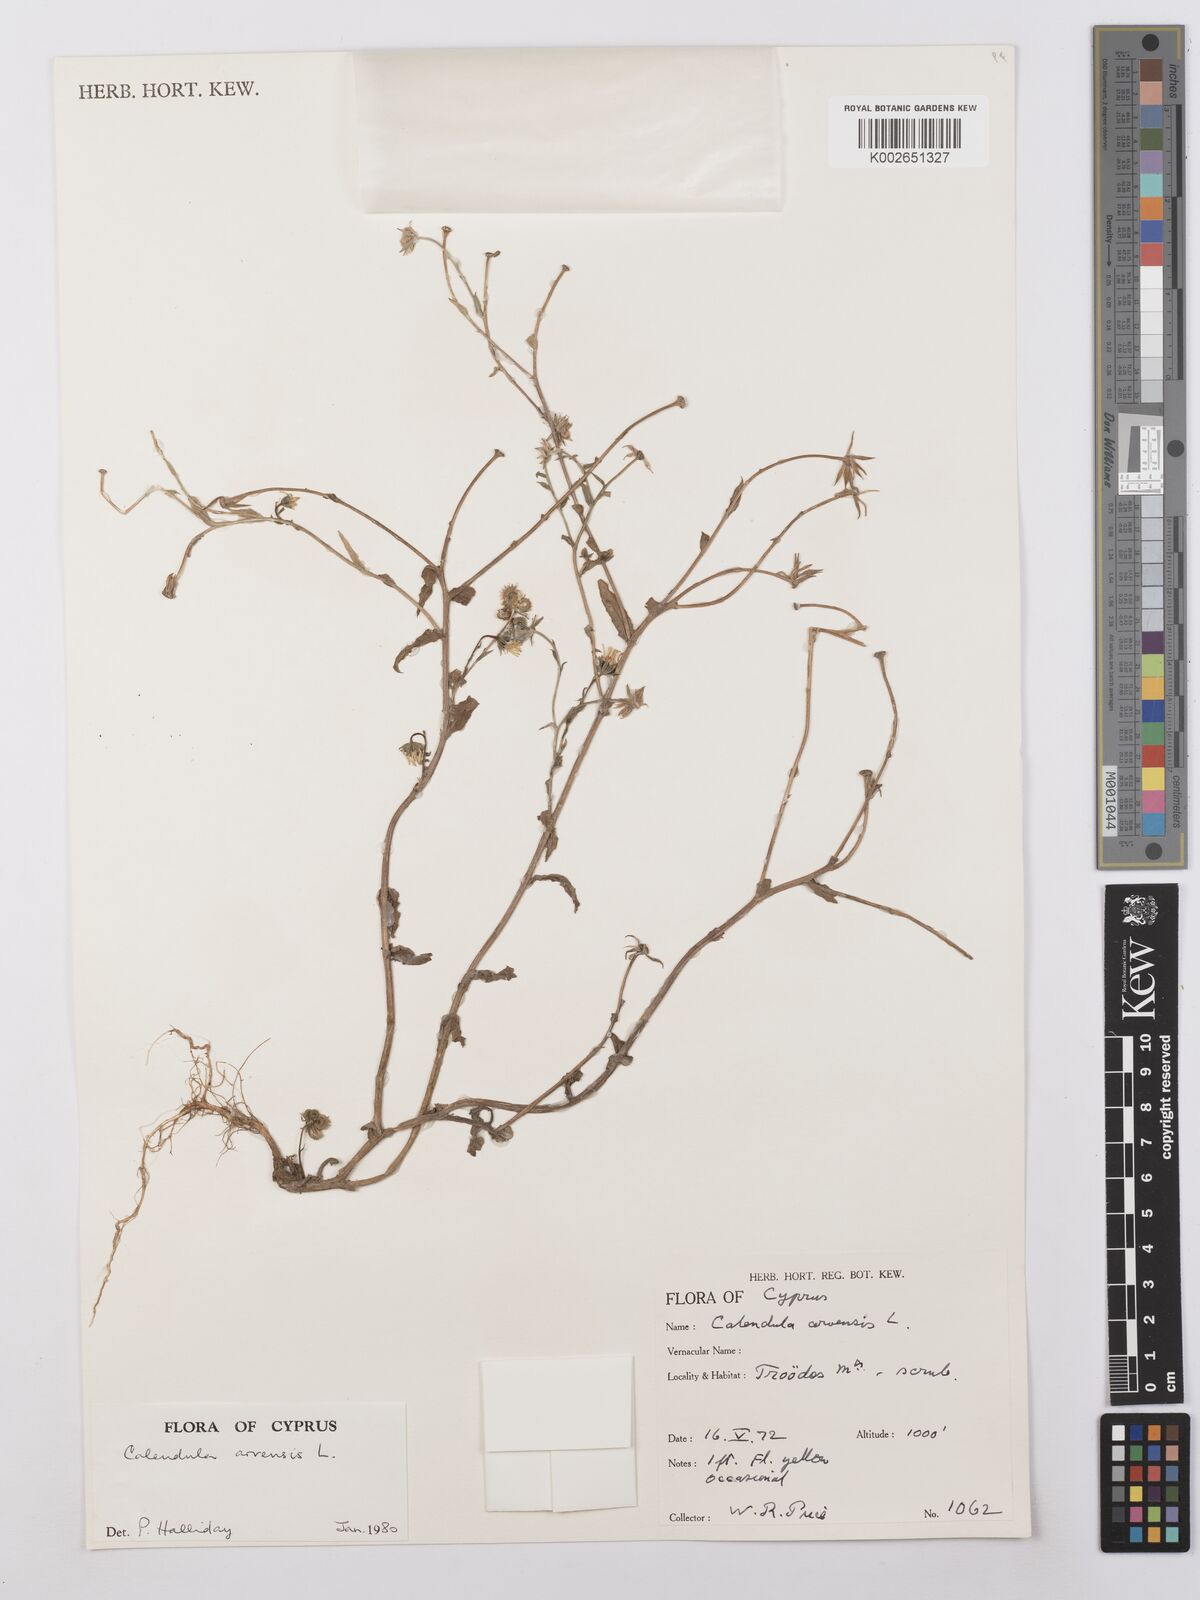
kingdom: Plantae
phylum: Tracheophyta
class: Magnoliopsida
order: Asterales
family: Asteraceae
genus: Calendula
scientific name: Calendula arvensis
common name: Field marigold
